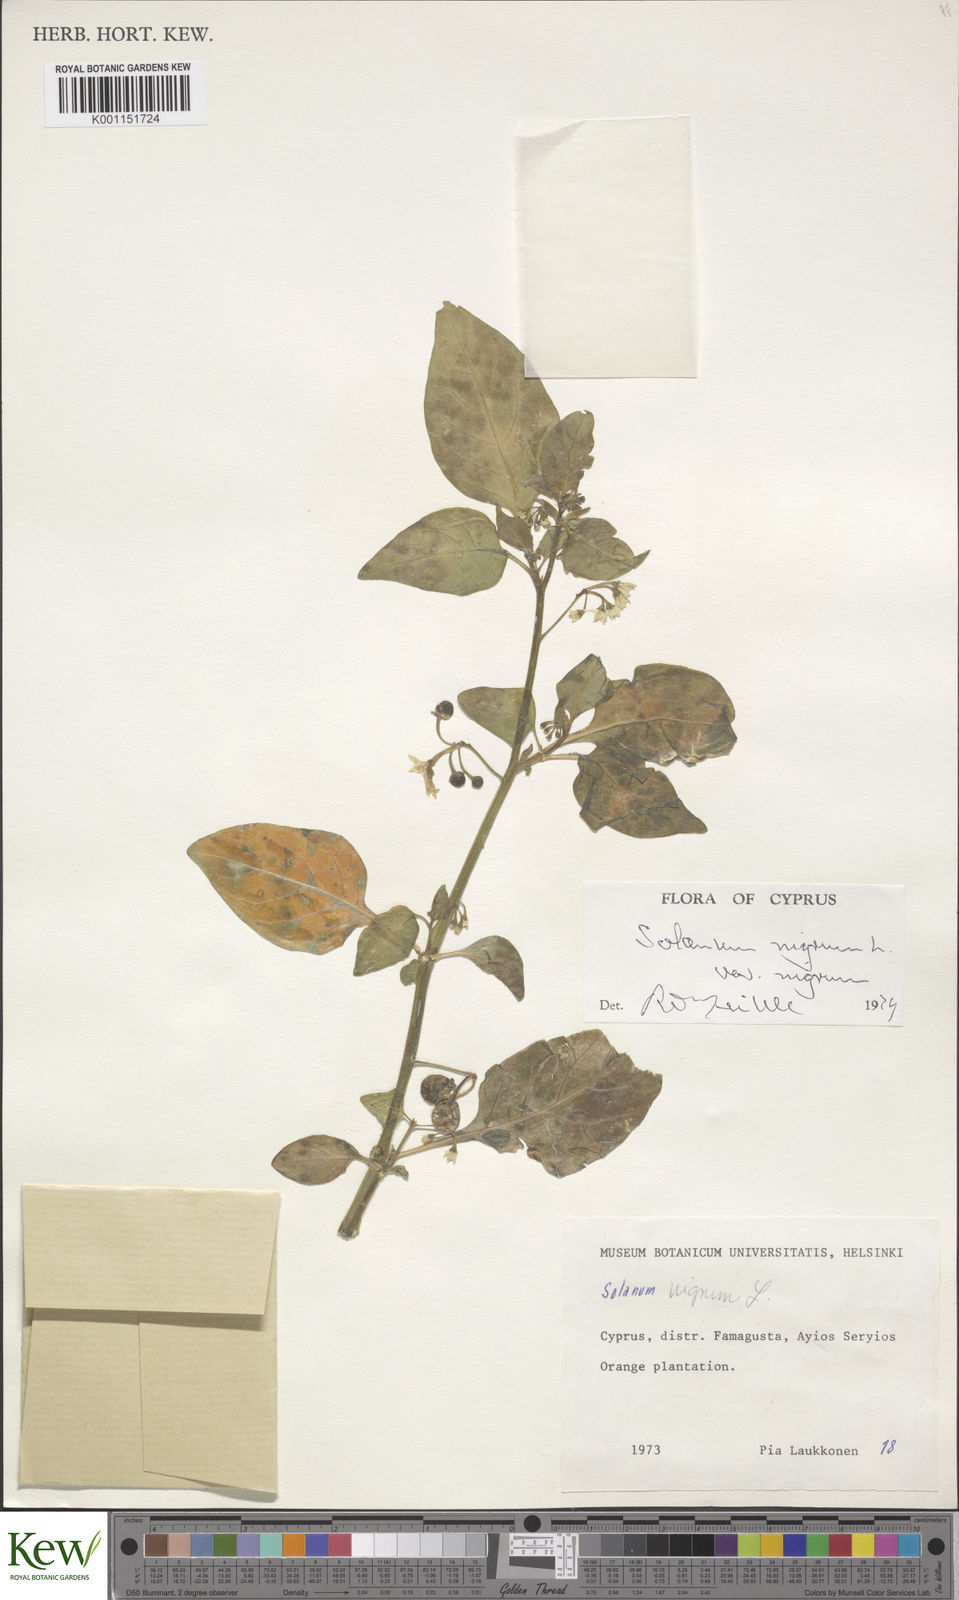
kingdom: Plantae
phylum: Tracheophyta
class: Magnoliopsida
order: Solanales
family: Solanaceae
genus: Solanum
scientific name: Solanum nigrum
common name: Black nightshade
